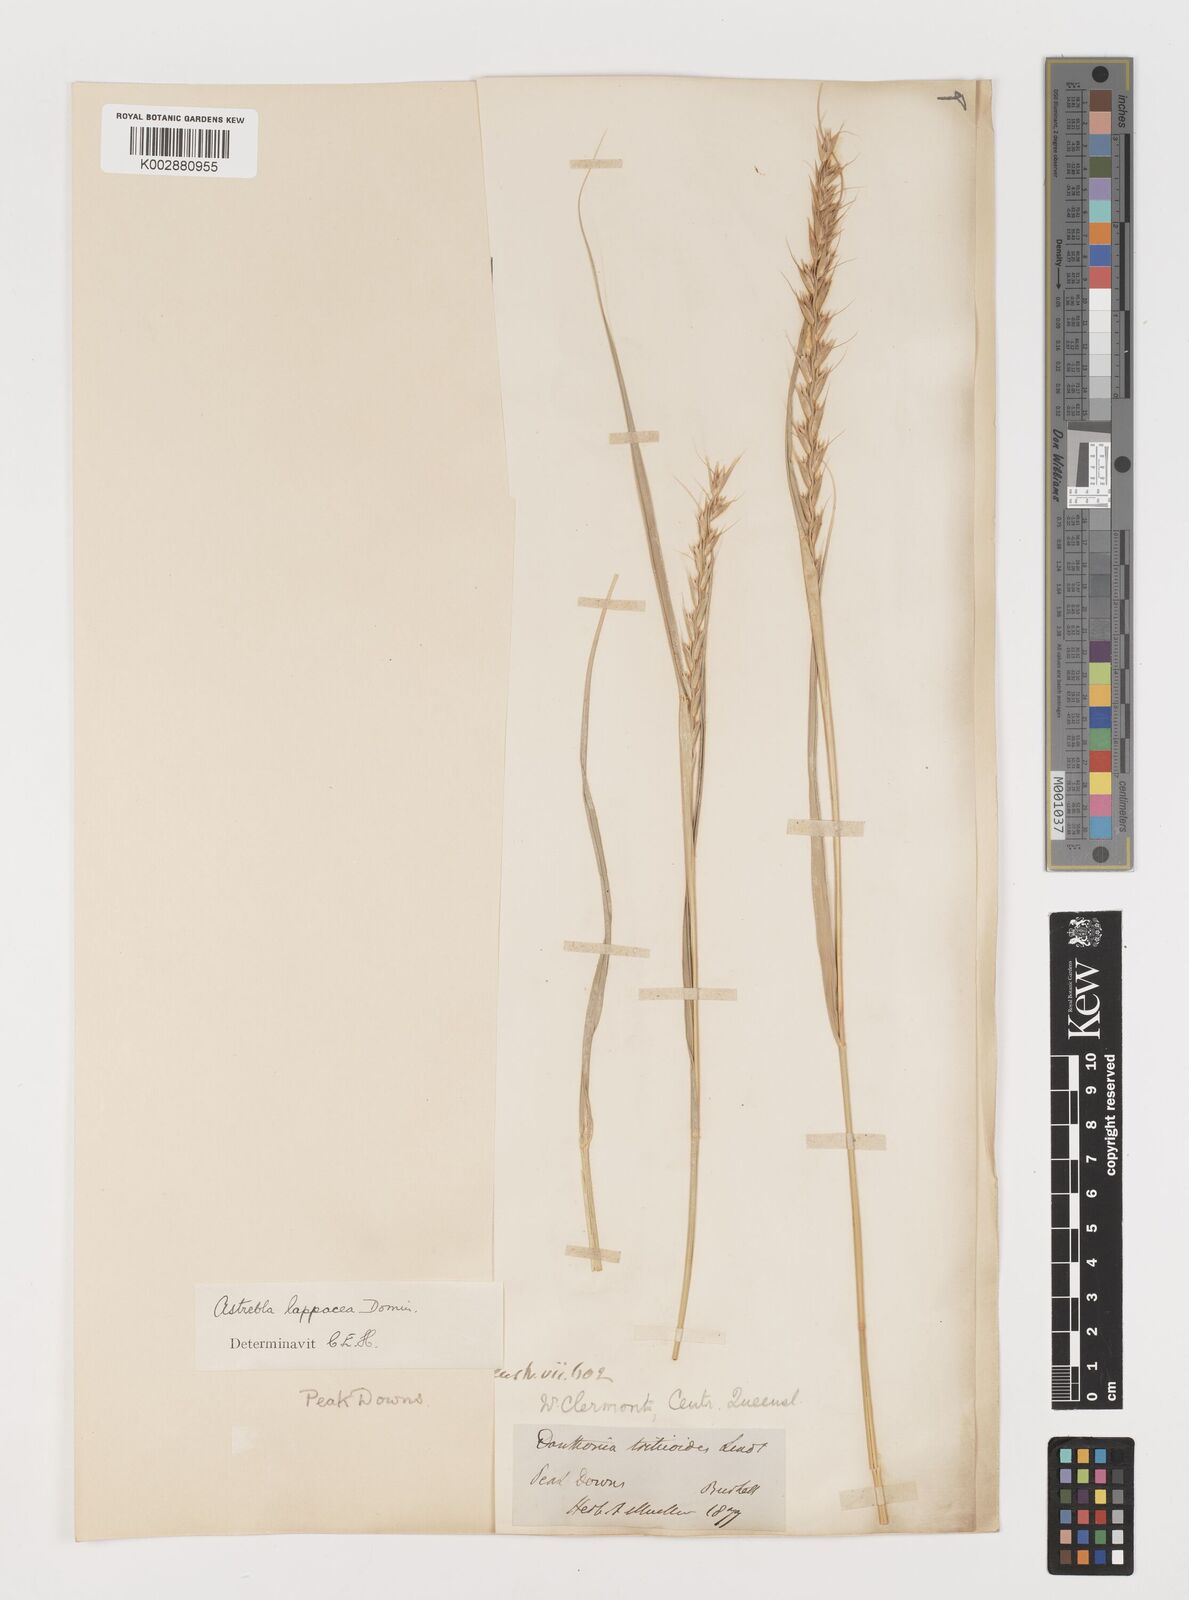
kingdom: Plantae
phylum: Tracheophyta
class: Liliopsida
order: Poales
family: Poaceae
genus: Astrebla
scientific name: Astrebla lappacea
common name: Curly mitchell grass
